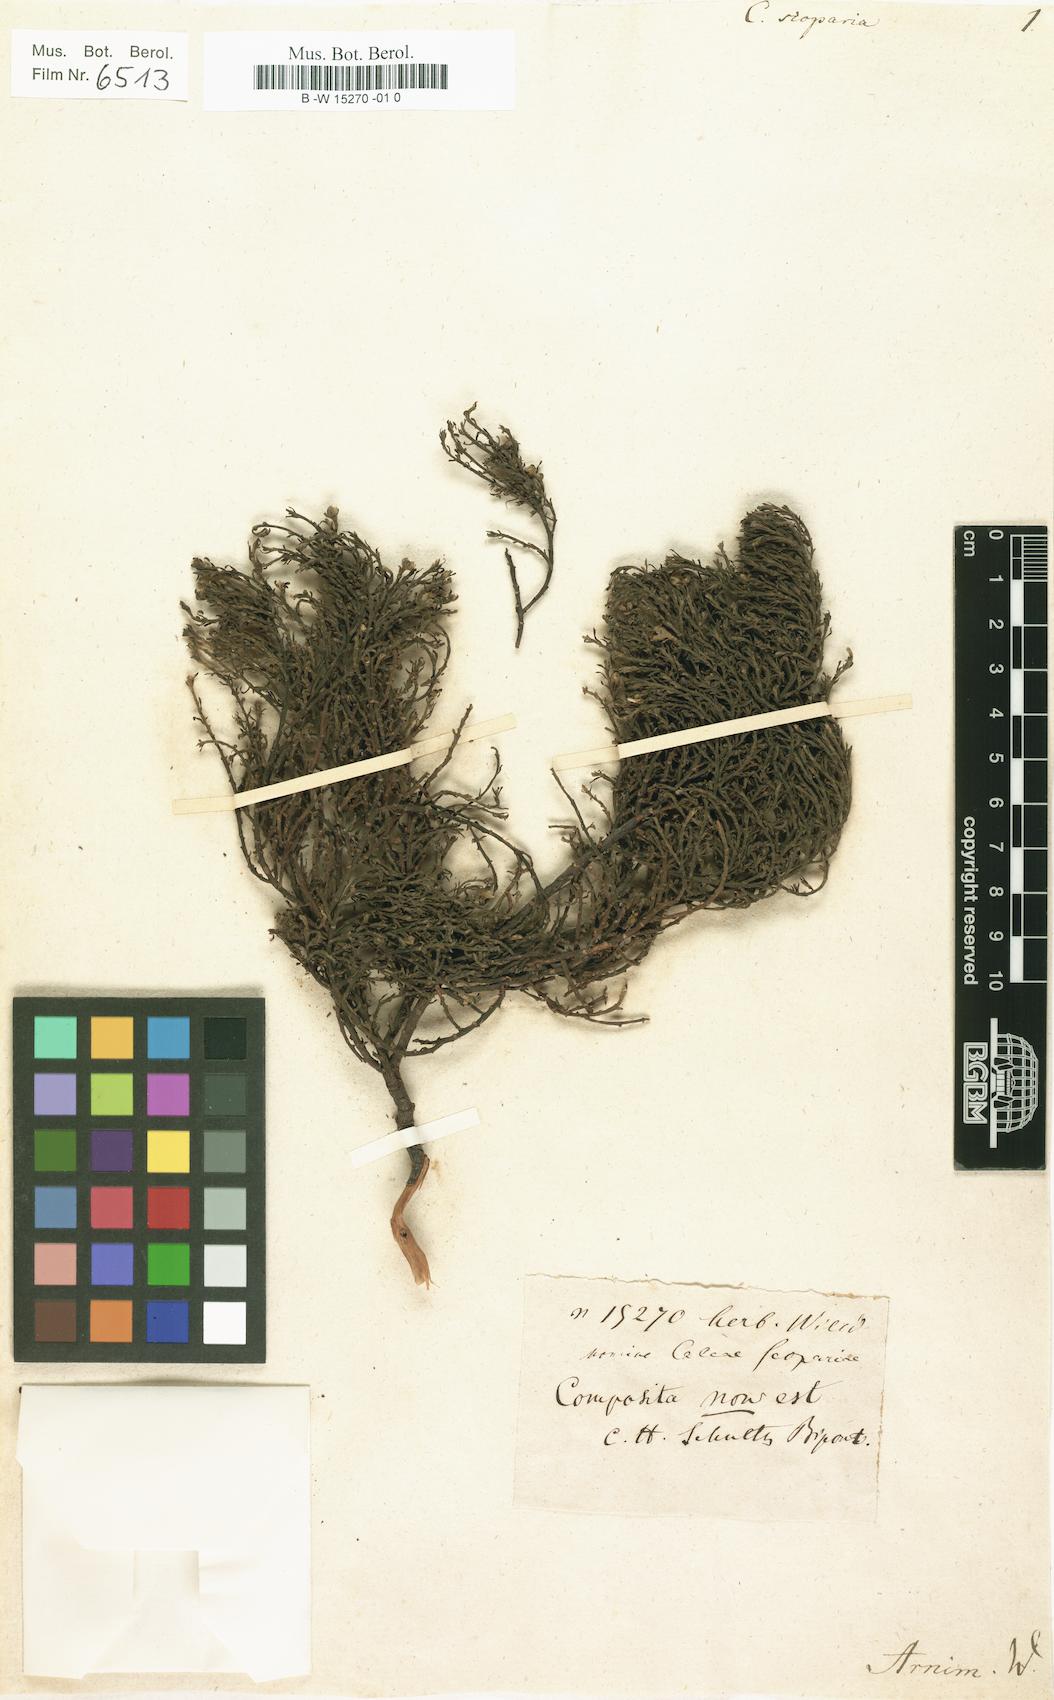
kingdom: Plantae
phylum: Tracheophyta
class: Magnoliopsida
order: Asterales
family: Asteraceae
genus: Baccharis
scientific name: Baccharis scoparia
